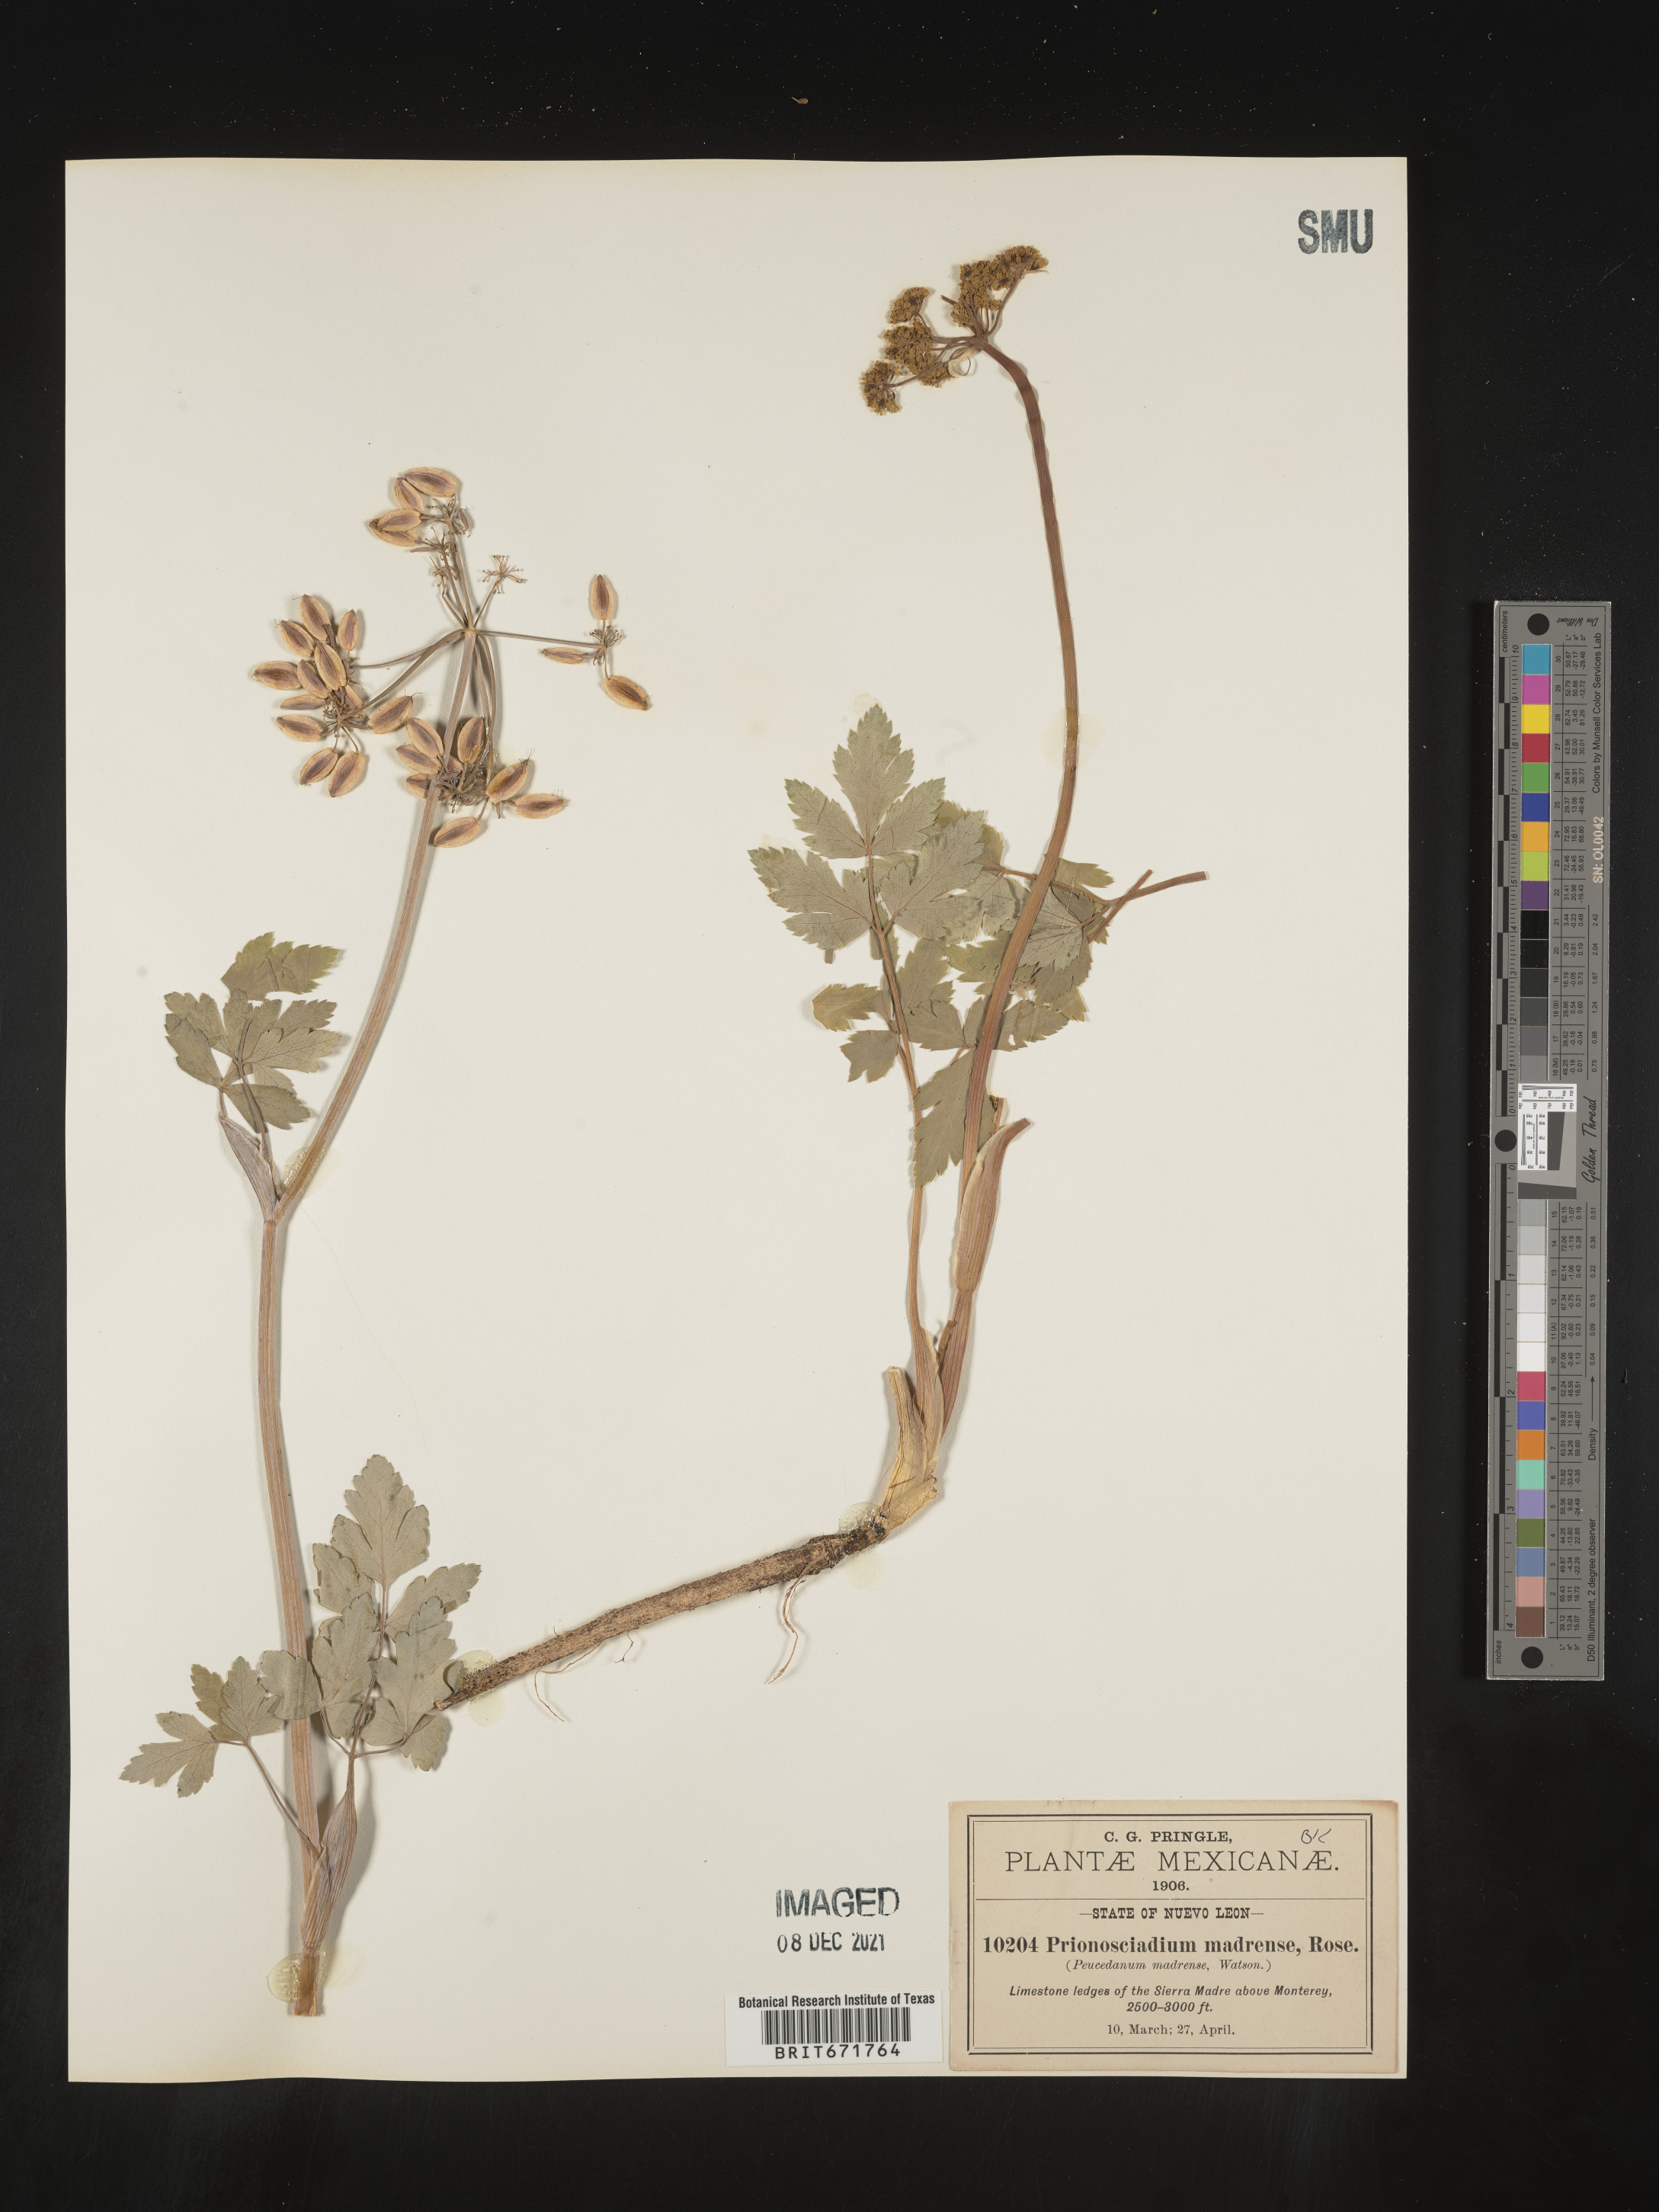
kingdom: Plantae
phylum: Tracheophyta
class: Magnoliopsida
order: Apiales
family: Apiaceae
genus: Prionosciadium
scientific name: Prionosciadium
